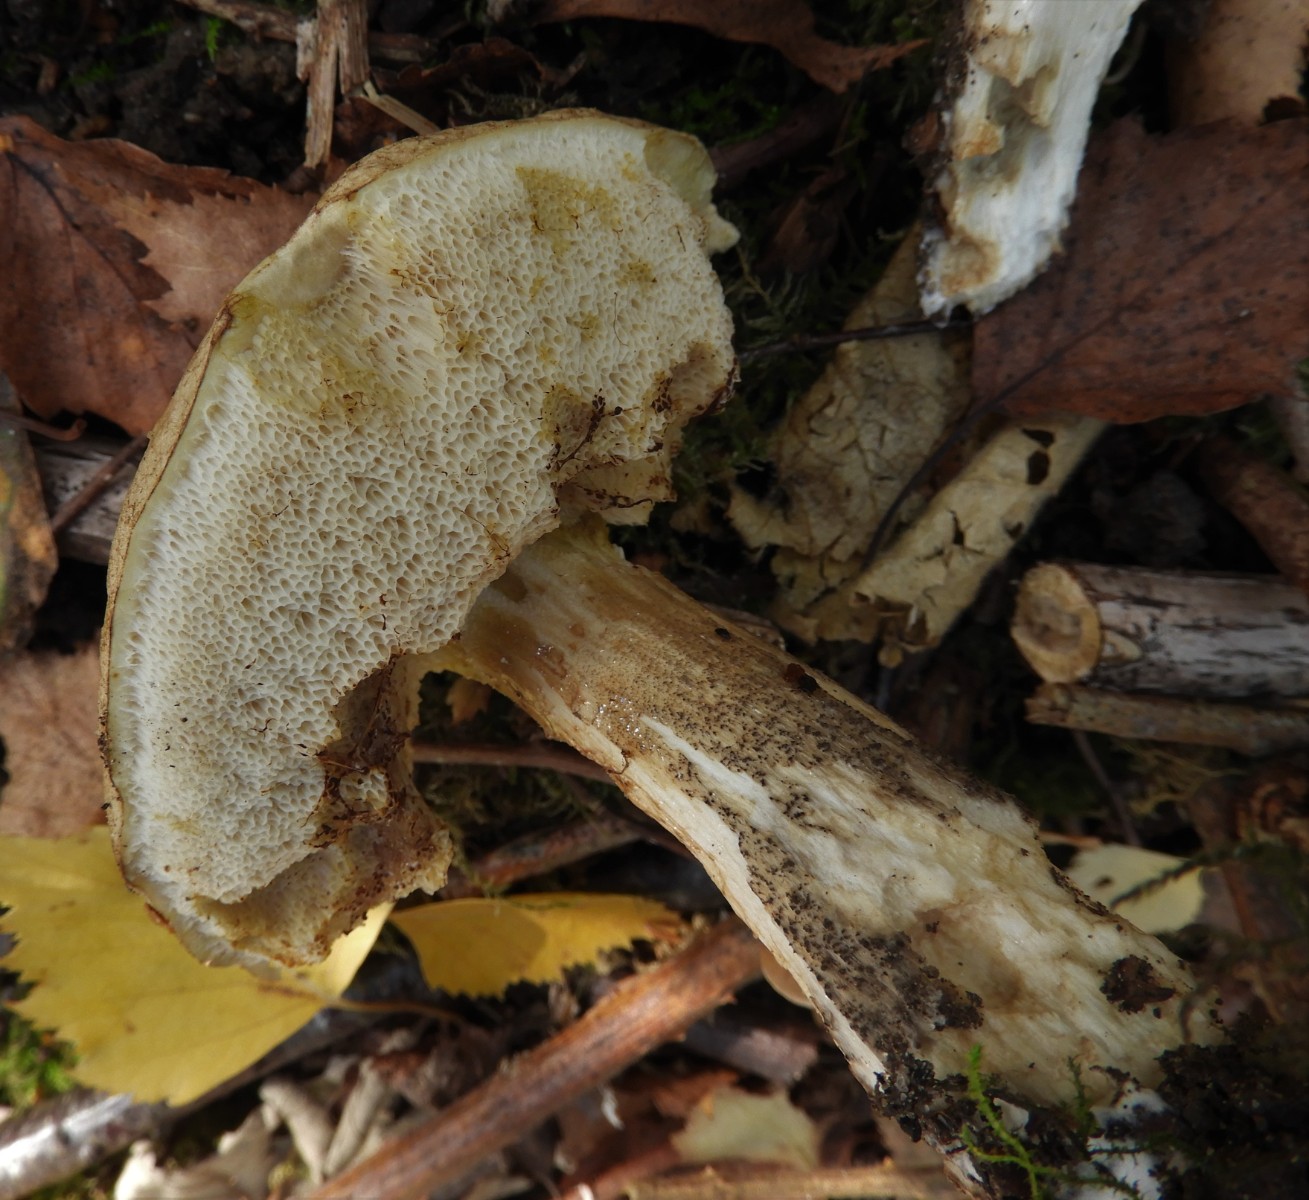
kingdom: Fungi
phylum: Basidiomycota
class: Agaricomycetes
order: Boletales
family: Boletaceae
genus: Leccinum
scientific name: Leccinum scabrum
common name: brun skælrørhat
